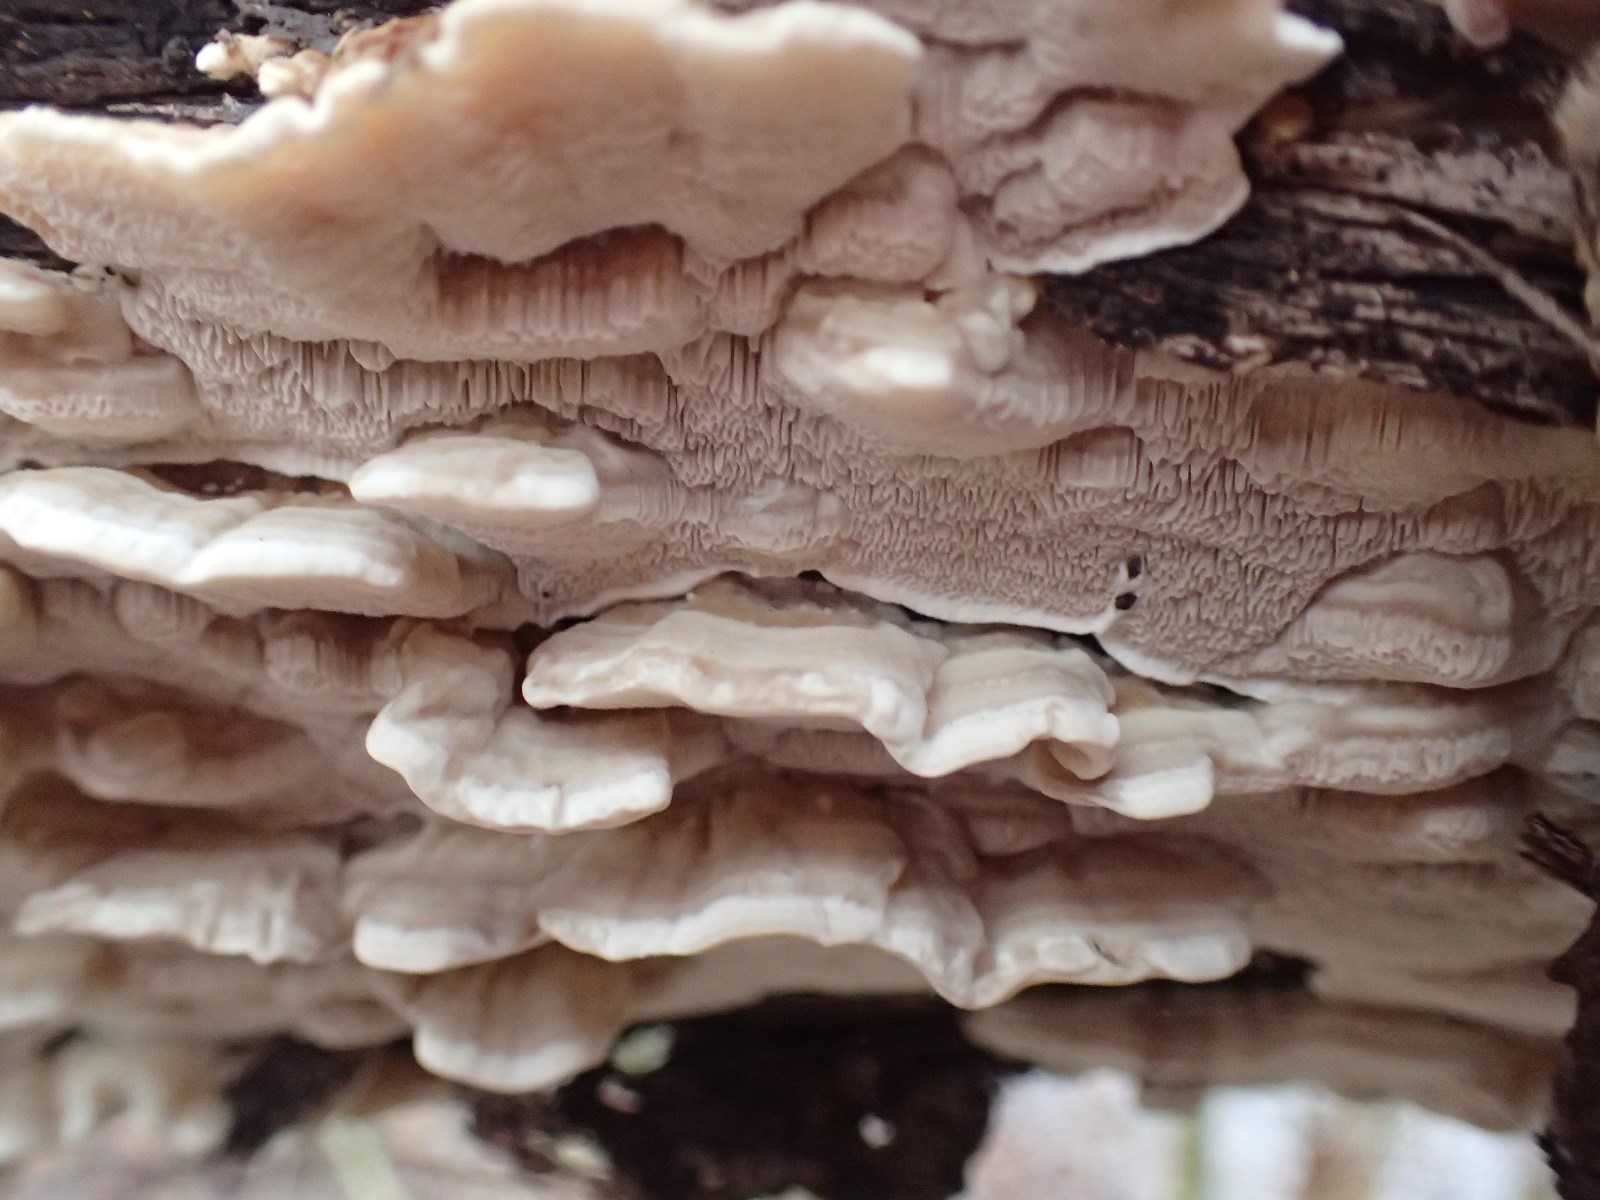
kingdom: Fungi
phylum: Basidiomycota
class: Agaricomycetes
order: Polyporales
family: Polyporaceae
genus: Trametes
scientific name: Trametes ochracea
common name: bæltet læderporesvamp
